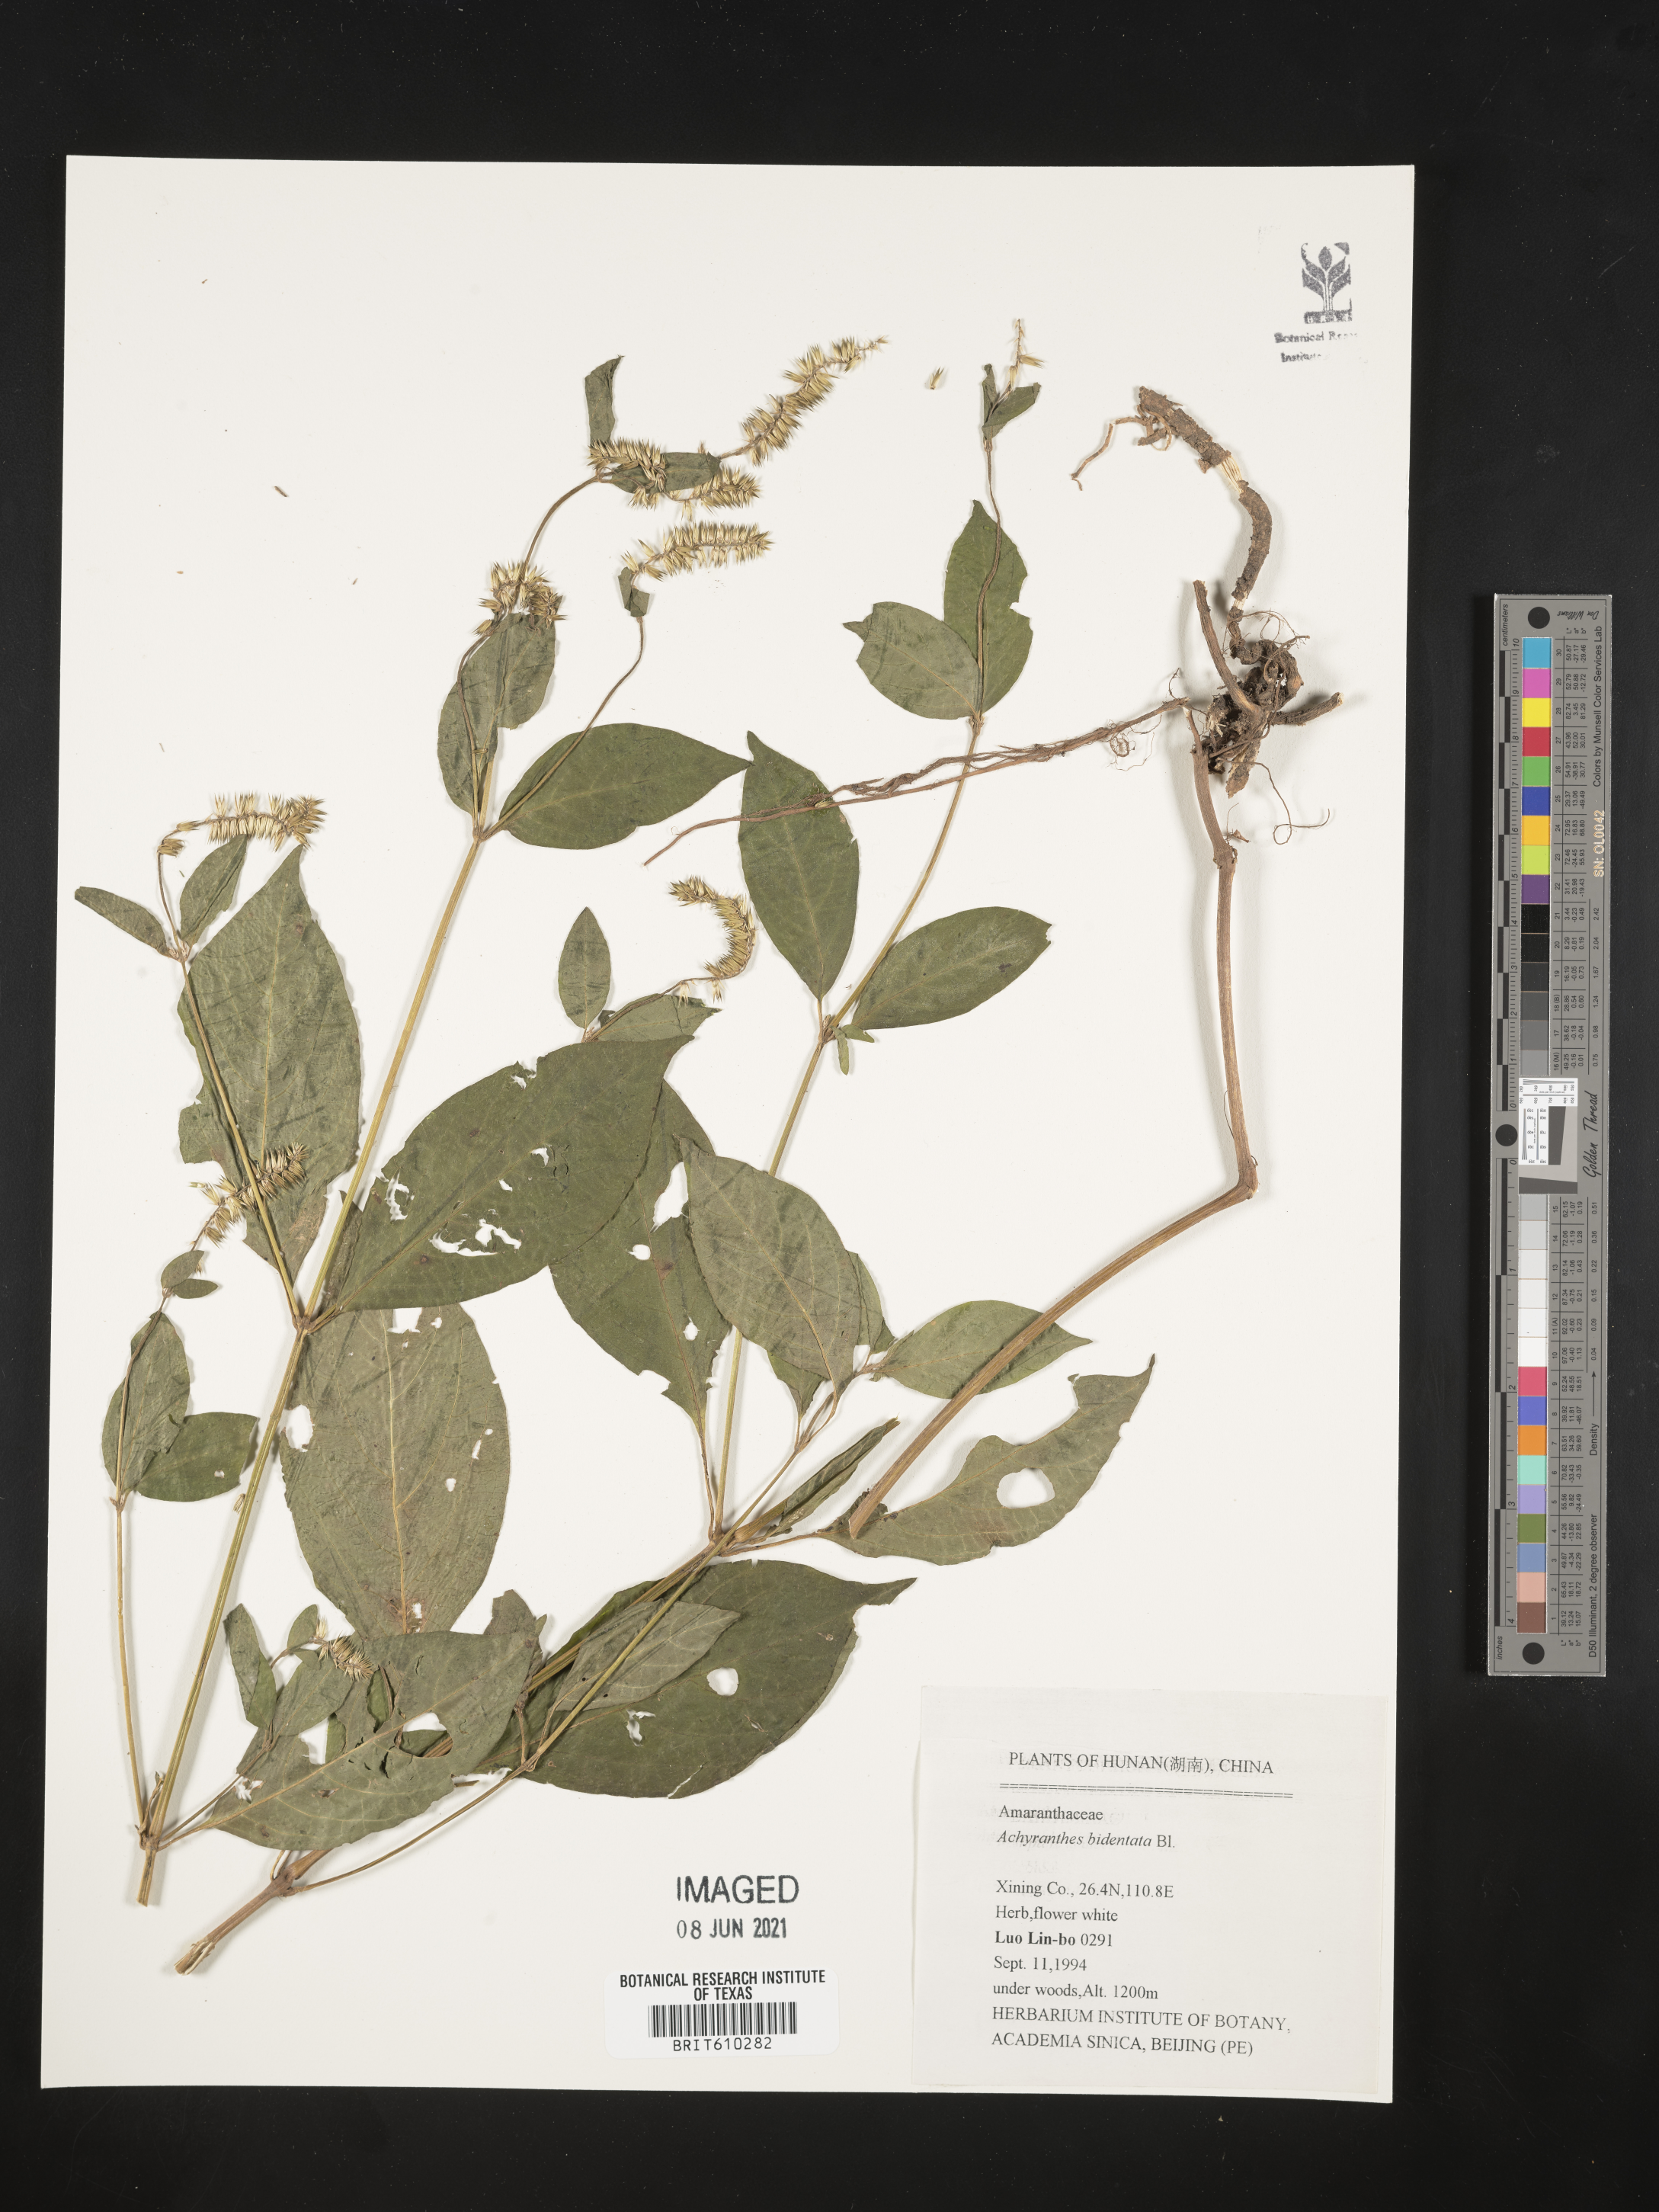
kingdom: Plantae
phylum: Tracheophyta
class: Magnoliopsida
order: Caryophyllales
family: Amaranthaceae
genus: Achyranthes
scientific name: Achyranthes bidentata
